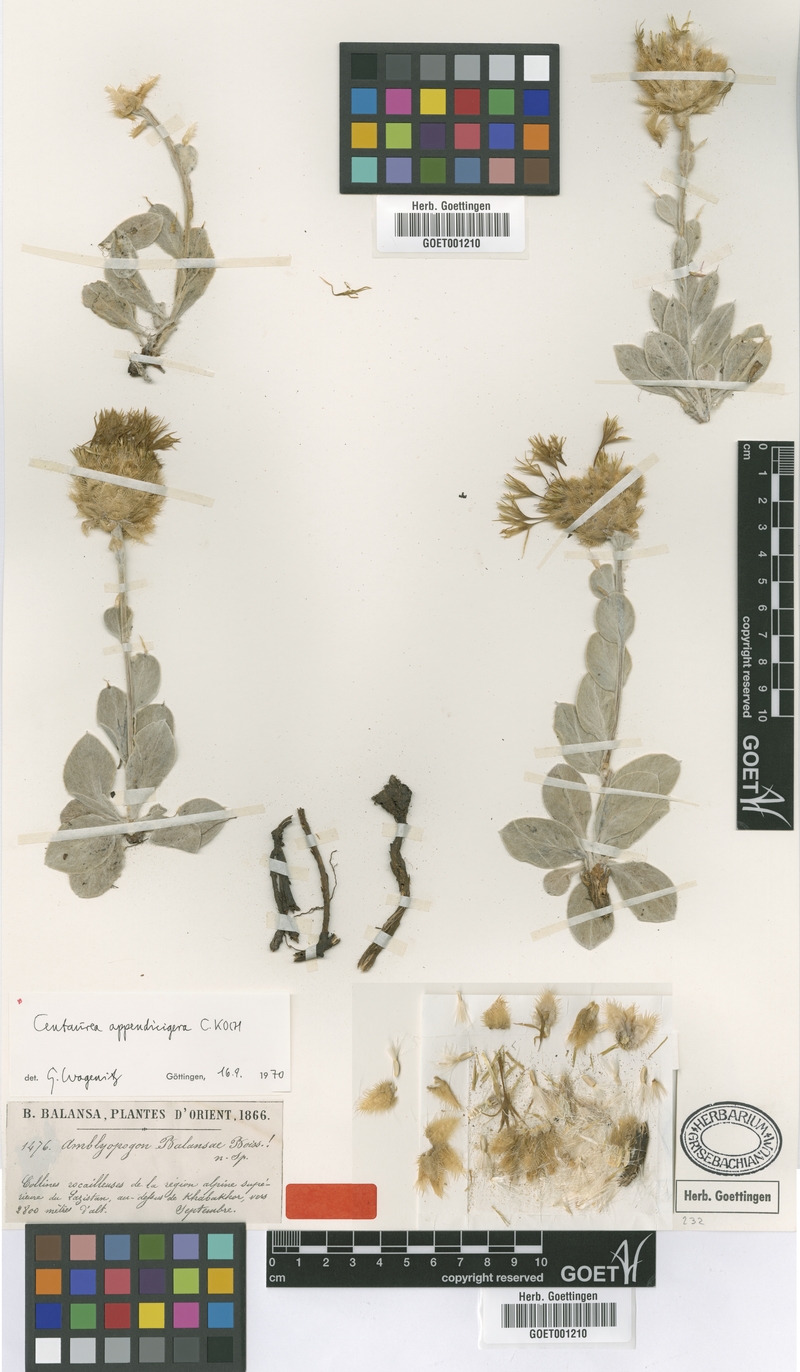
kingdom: Plantae
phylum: Tracheophyta
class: Magnoliopsida
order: Asterales
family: Asteraceae
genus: Psephellus
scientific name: Psephellus appendicigerus
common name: Appendage-bearing centaury
